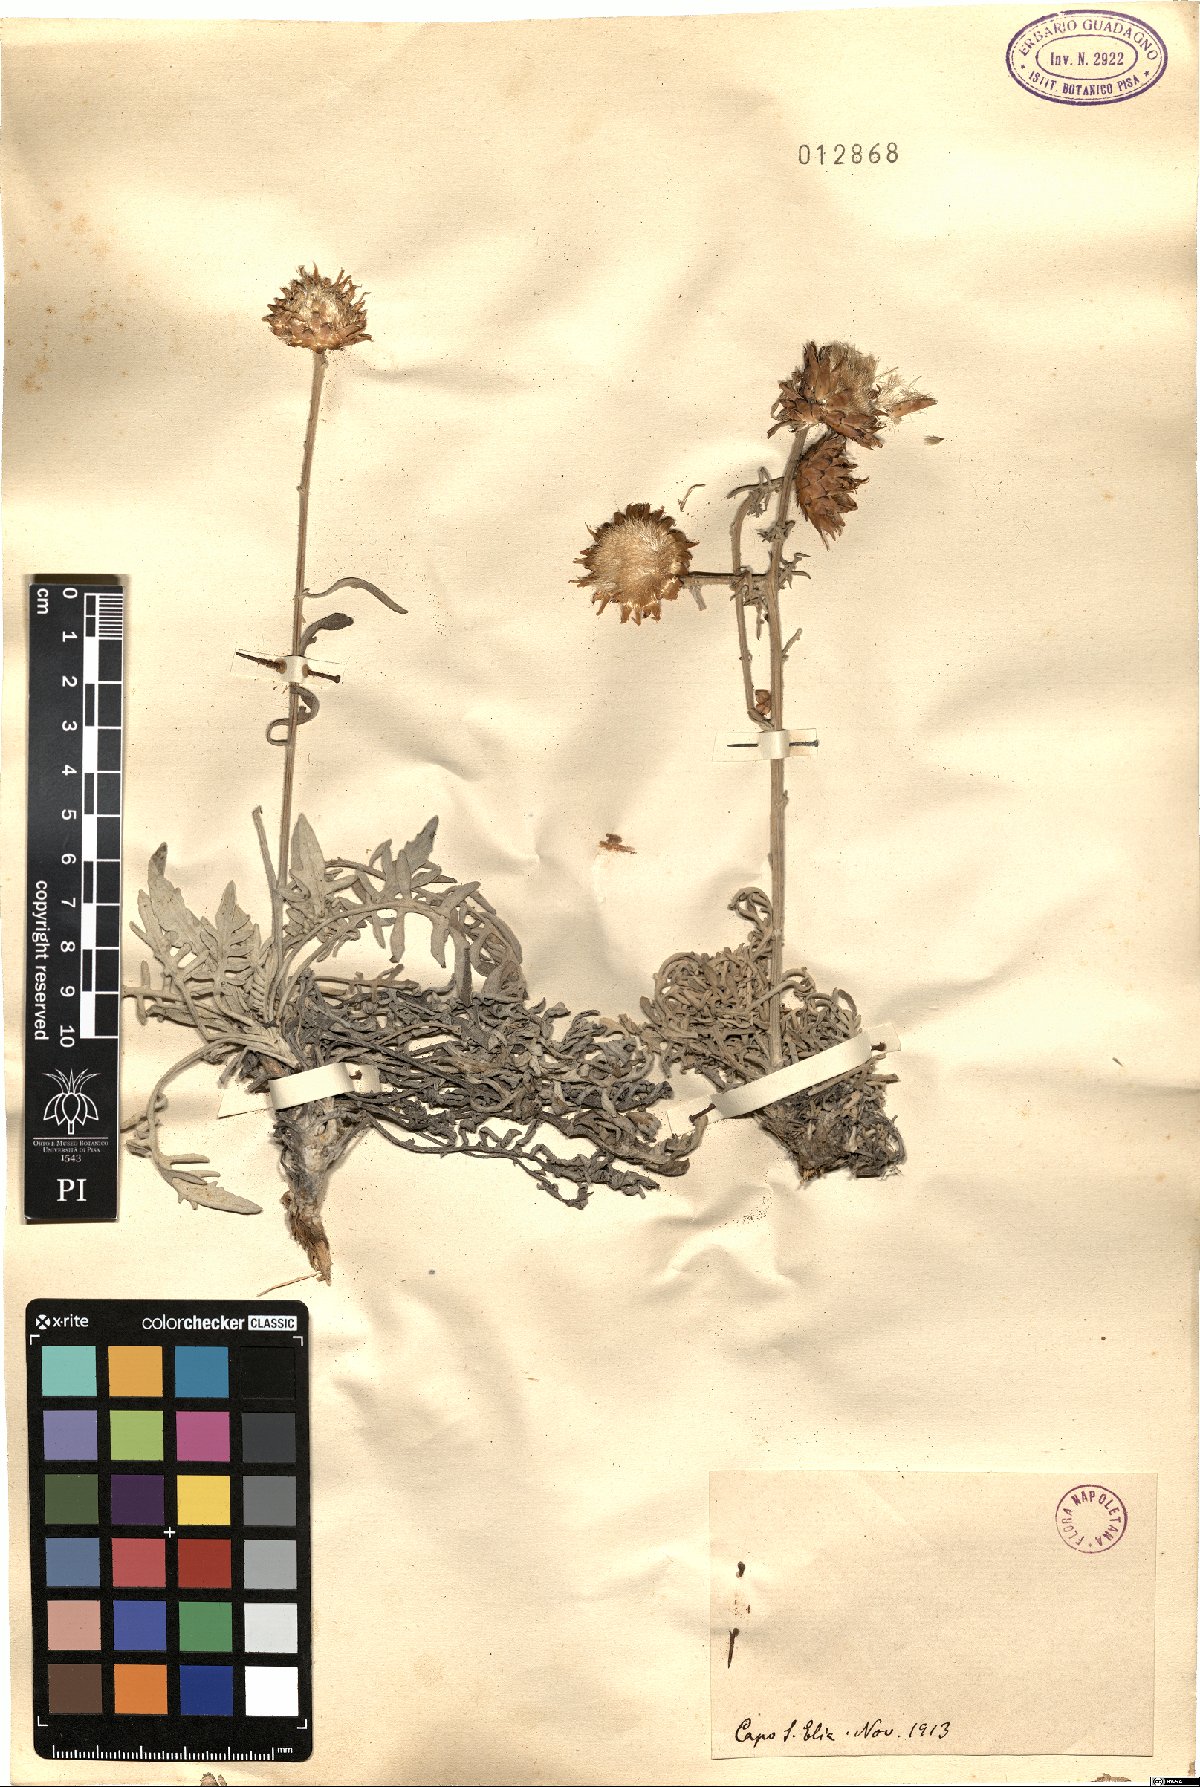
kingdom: Plantae
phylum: Tracheophyta
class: Magnoliopsida
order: Asterales
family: Asteraceae
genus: Centaurea
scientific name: Centaurea
